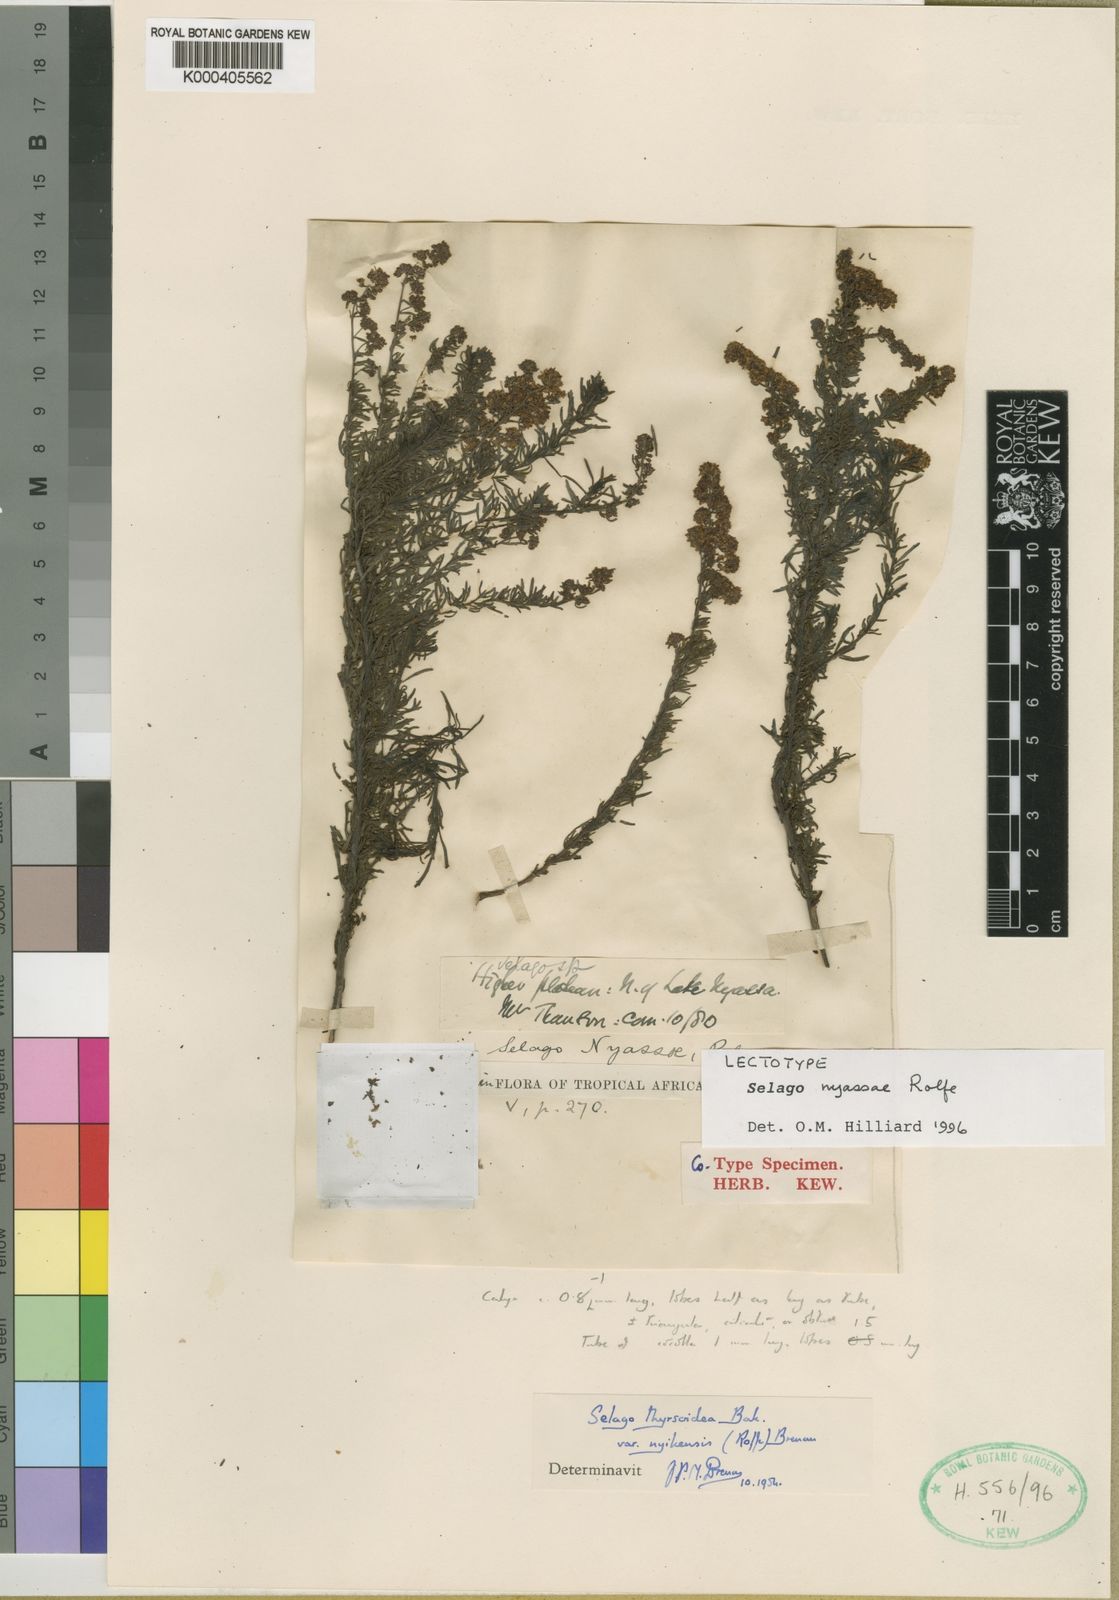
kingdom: Plantae
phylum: Tracheophyta
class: Magnoliopsida
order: Lamiales
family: Scrophulariaceae
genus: Selago
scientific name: Selago nyasae
